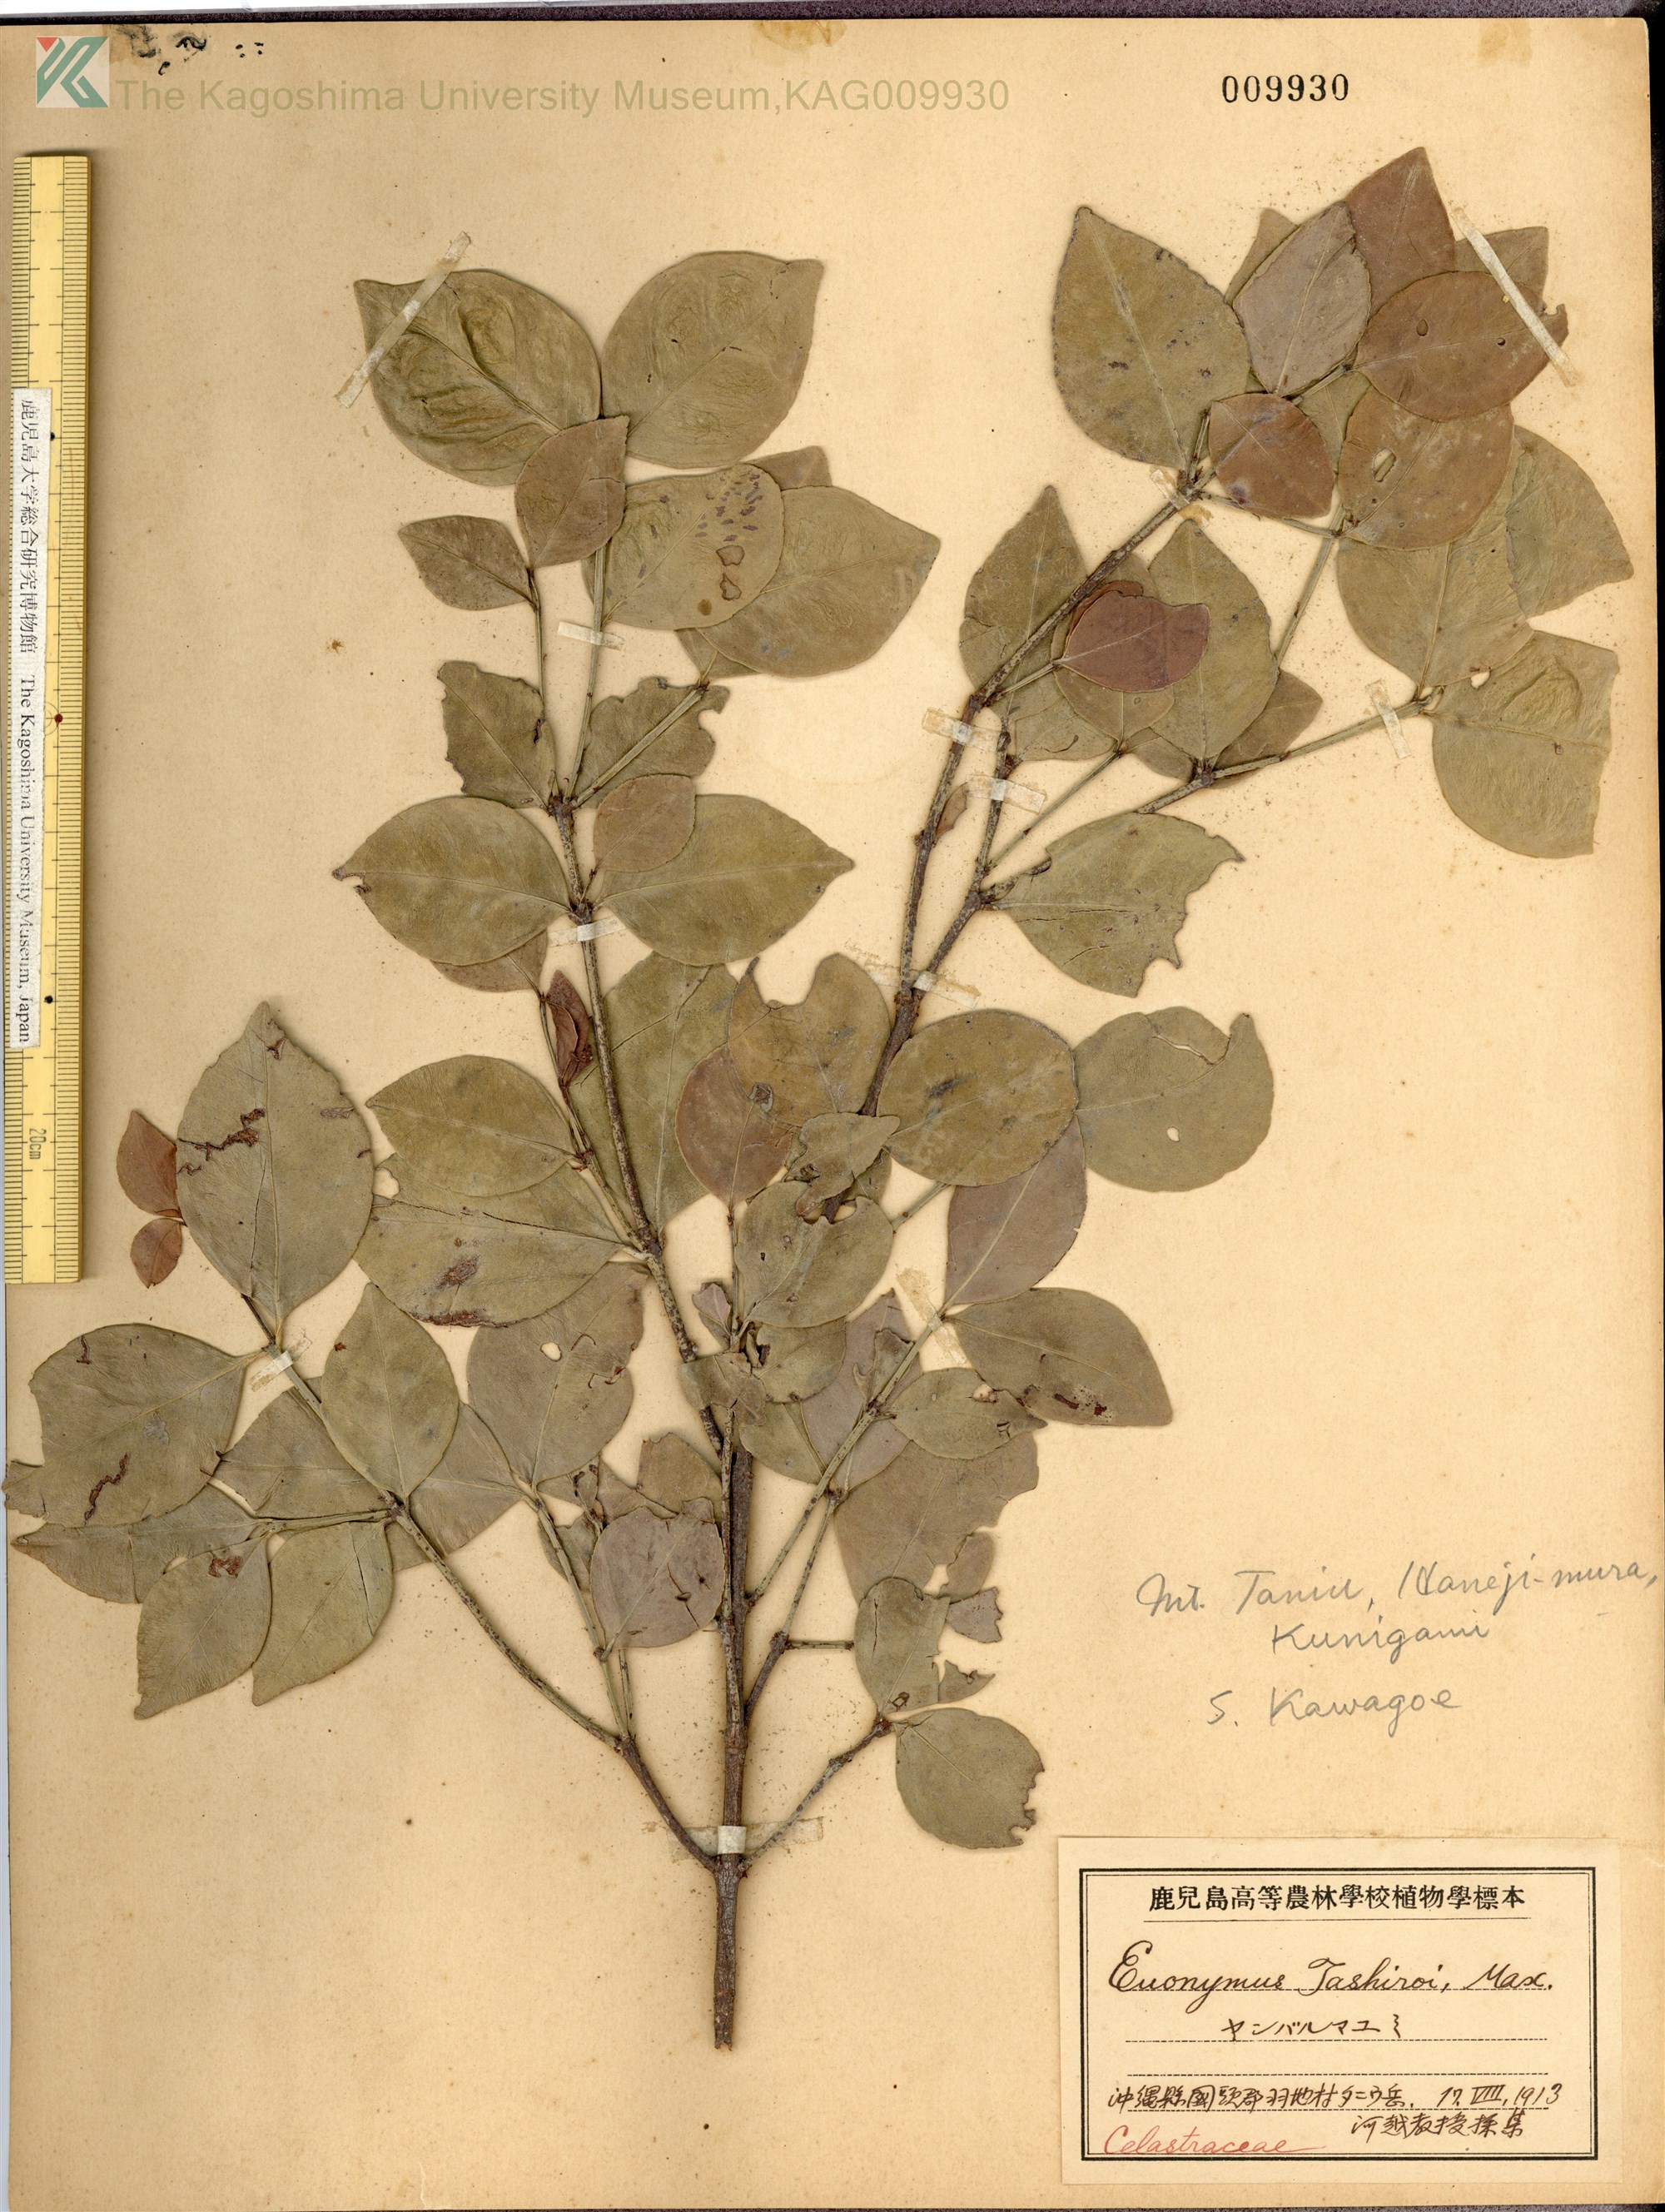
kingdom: Plantae
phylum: Tracheophyta
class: Magnoliopsida
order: Celastrales
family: Celastraceae
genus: Euonymus
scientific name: Euonymus tashiroi
